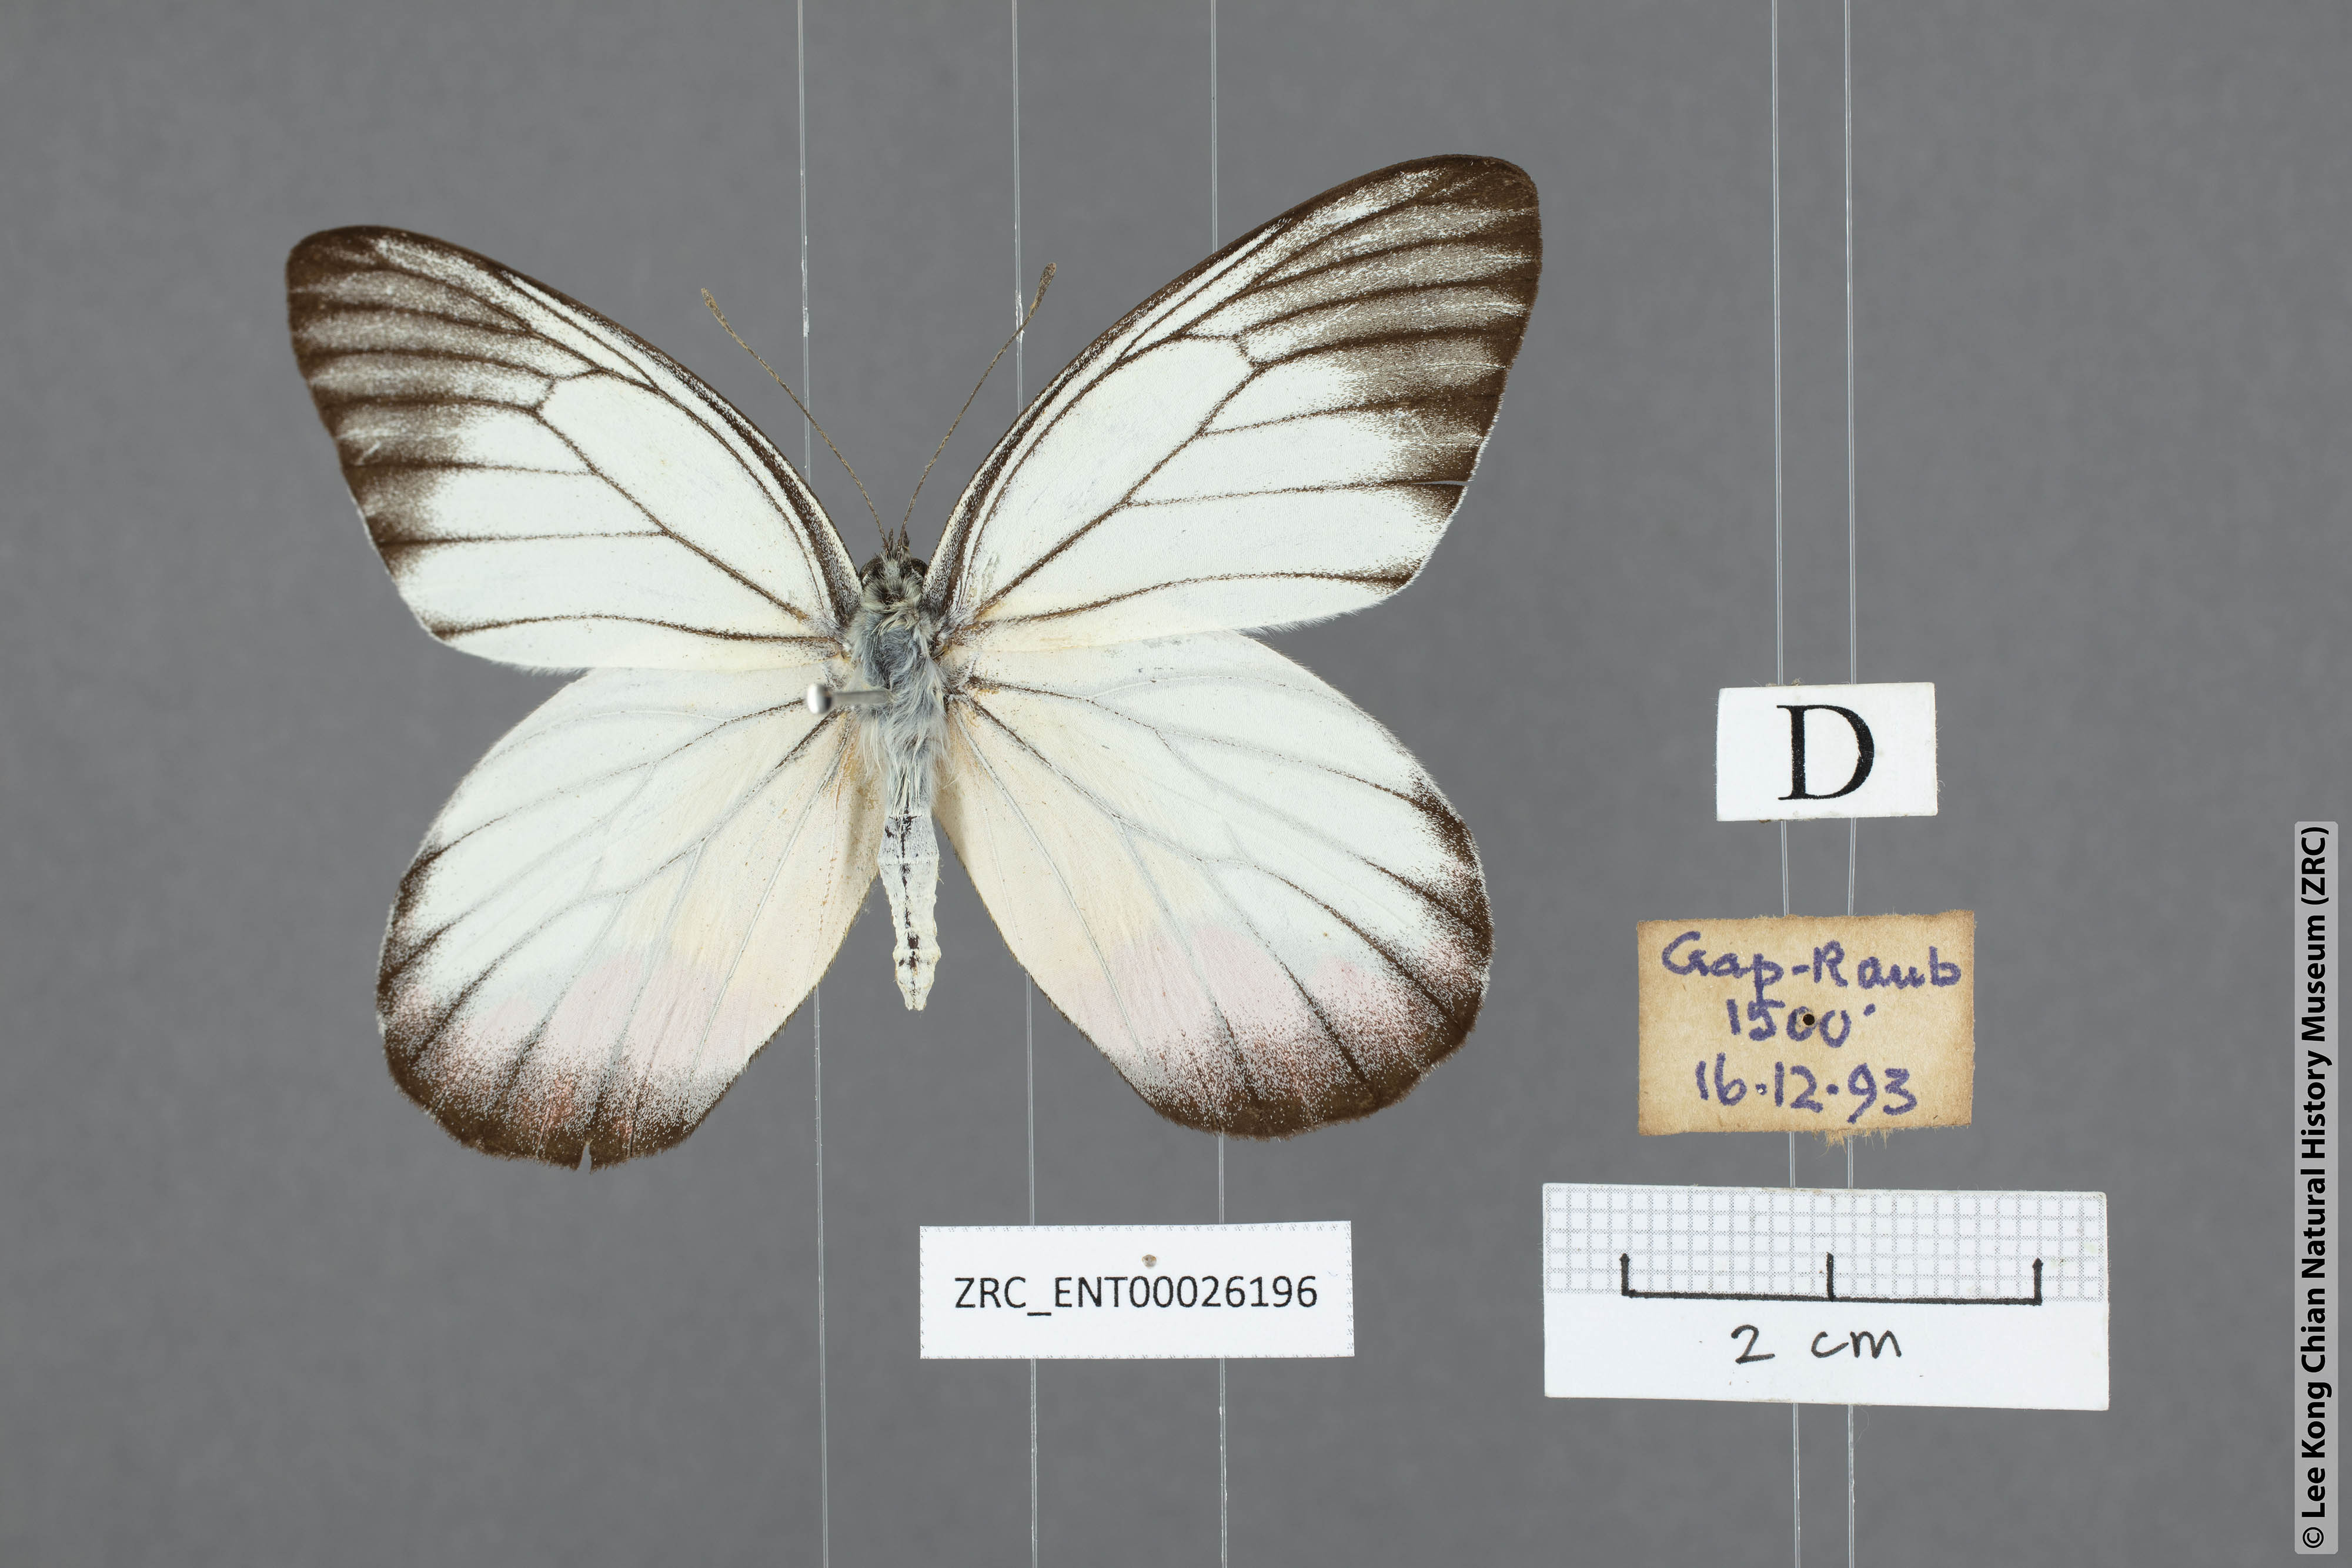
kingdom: Animalia
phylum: Arthropoda
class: Insecta
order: Lepidoptera
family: Pieridae
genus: Delias
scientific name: Delias hyparete
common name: Painted jezebel
